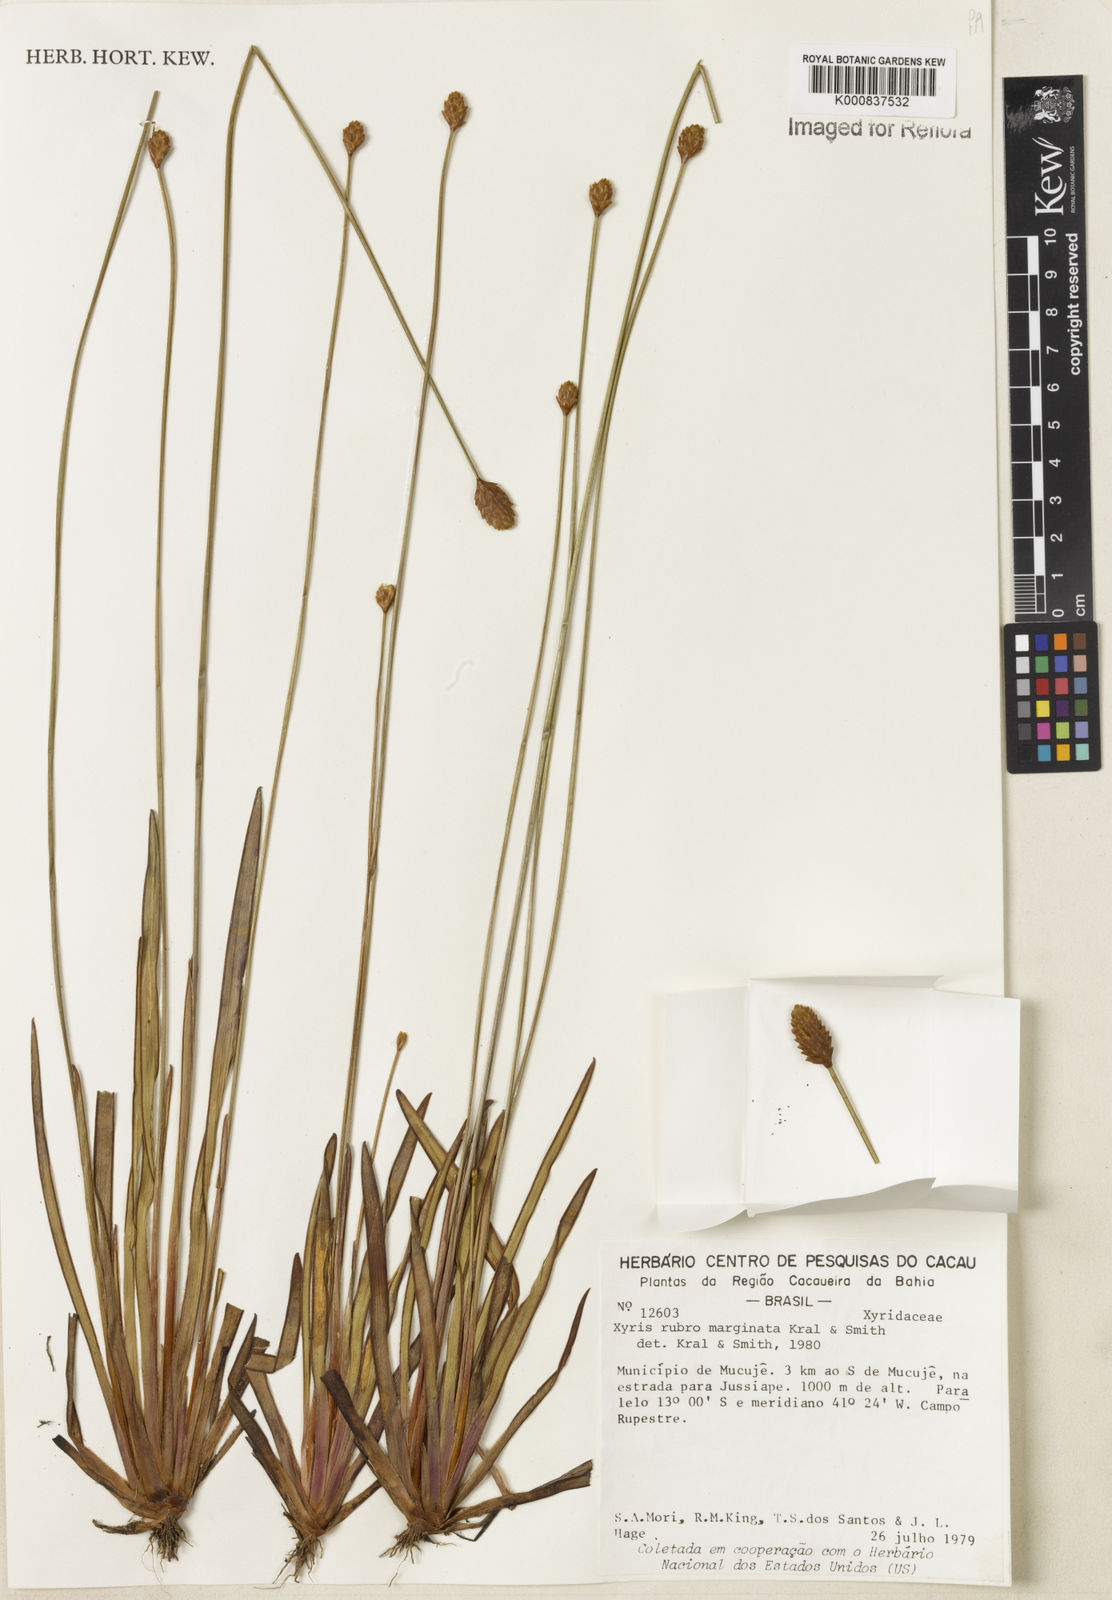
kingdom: Plantae
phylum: Tracheophyta
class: Liliopsida
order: Poales
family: Xyridaceae
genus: Xyris
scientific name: Xyris rubromarginata
